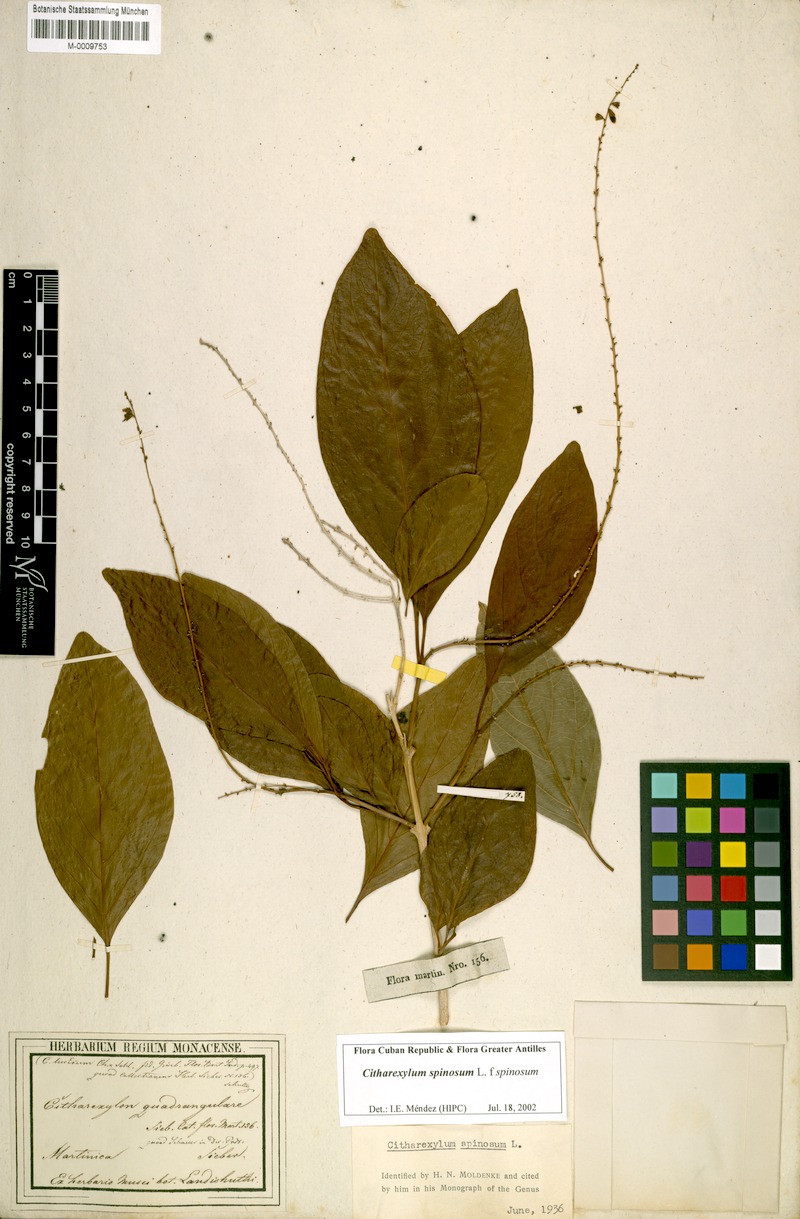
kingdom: Plantae
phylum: Tracheophyta
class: Magnoliopsida
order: Lamiales
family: Verbenaceae
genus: Citharexylum
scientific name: Citharexylum spinosum
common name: Fiddlewood
